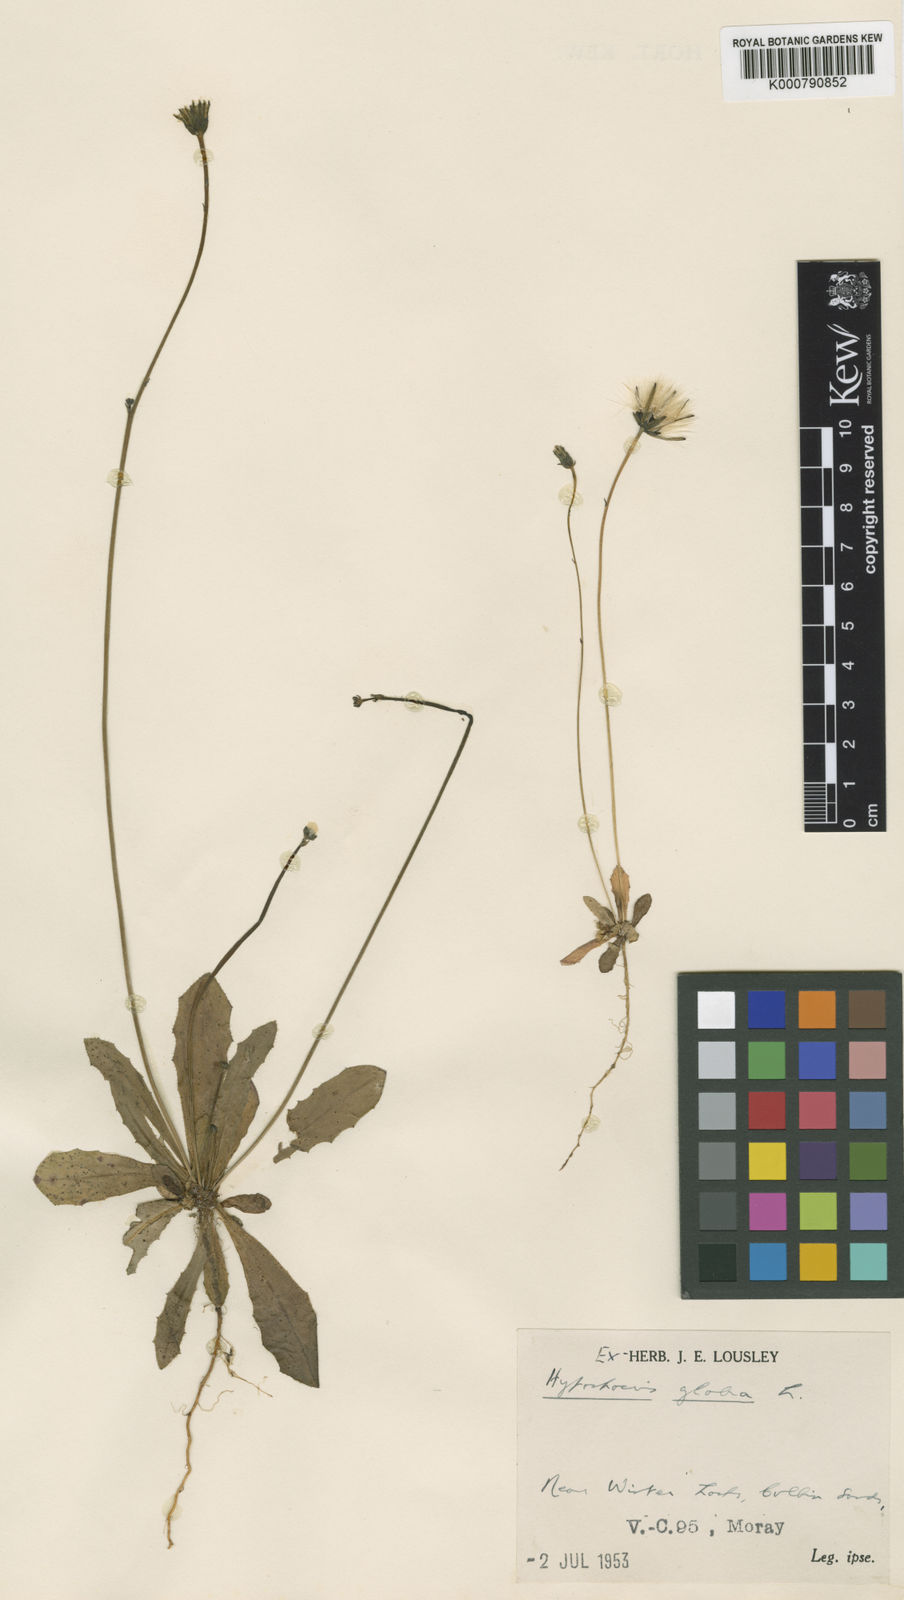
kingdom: Plantae
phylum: Tracheophyta
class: Magnoliopsida
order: Asterales
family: Asteraceae
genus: Hypochaeris
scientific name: Hypochaeris glabra
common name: Smooth catsear
